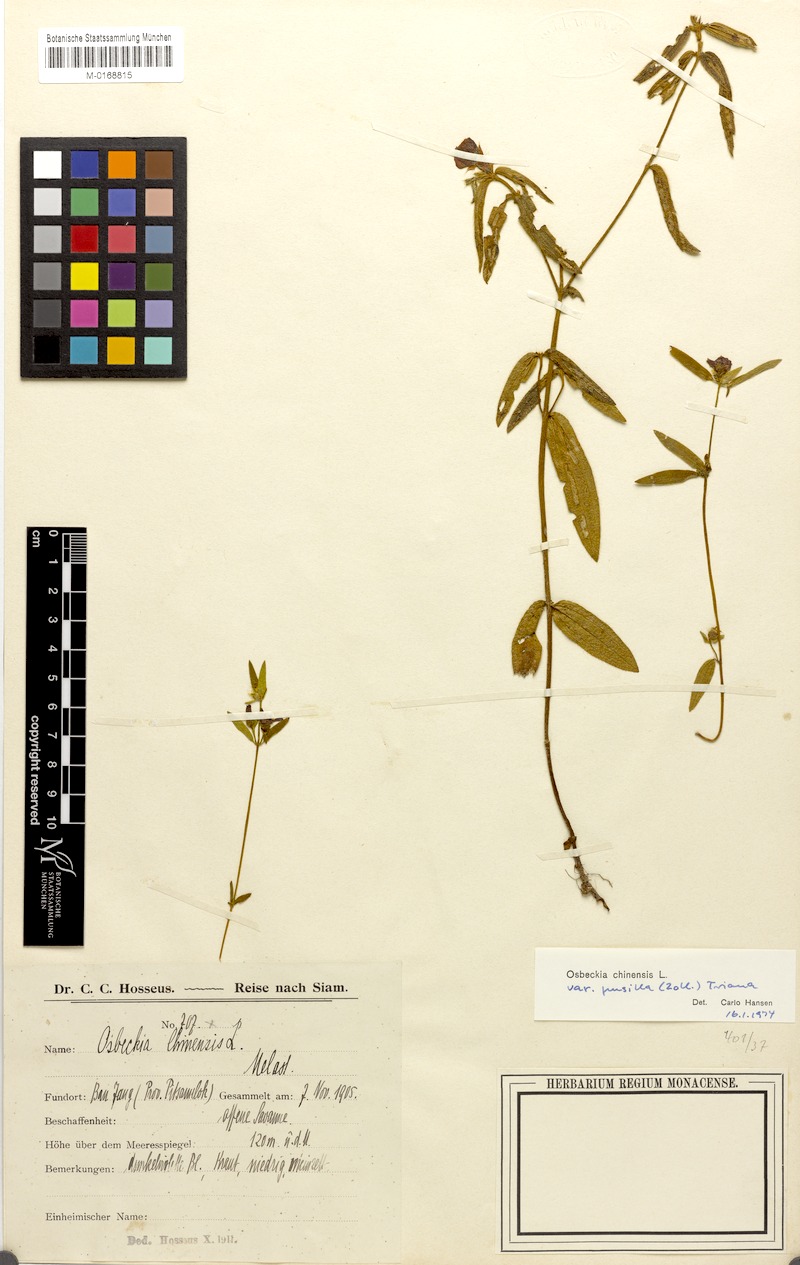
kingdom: Plantae
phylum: Tracheophyta
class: Magnoliopsida
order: Myrtales
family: Melastomataceae
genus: Osbeckia
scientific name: Osbeckia chinensis
